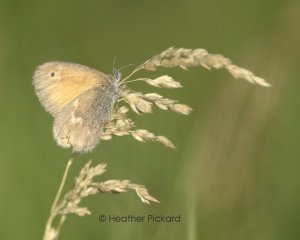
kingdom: Animalia
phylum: Arthropoda
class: Insecta
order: Lepidoptera
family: Nymphalidae
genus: Coenonympha
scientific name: Coenonympha tullia
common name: Large Heath
